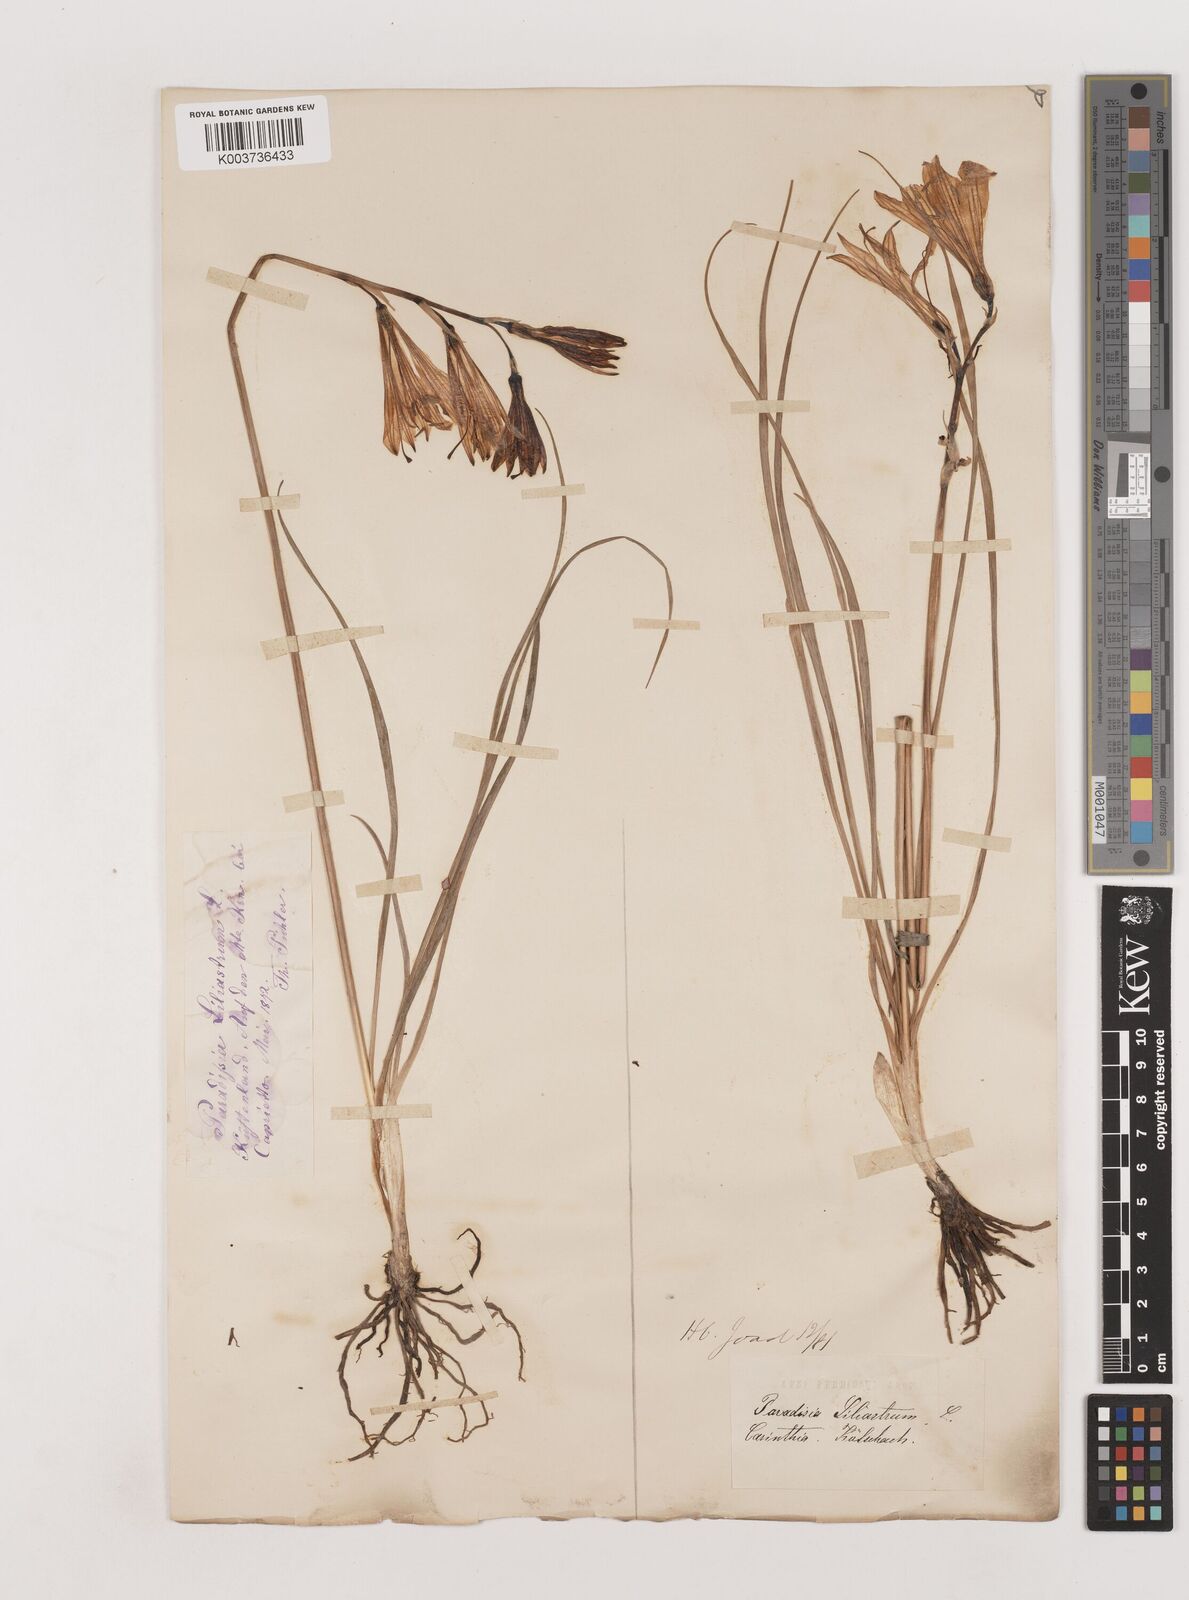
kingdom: Plantae
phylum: Tracheophyta
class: Liliopsida
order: Asparagales
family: Asparagaceae
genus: Paradisea
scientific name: Paradisea liliastrum
